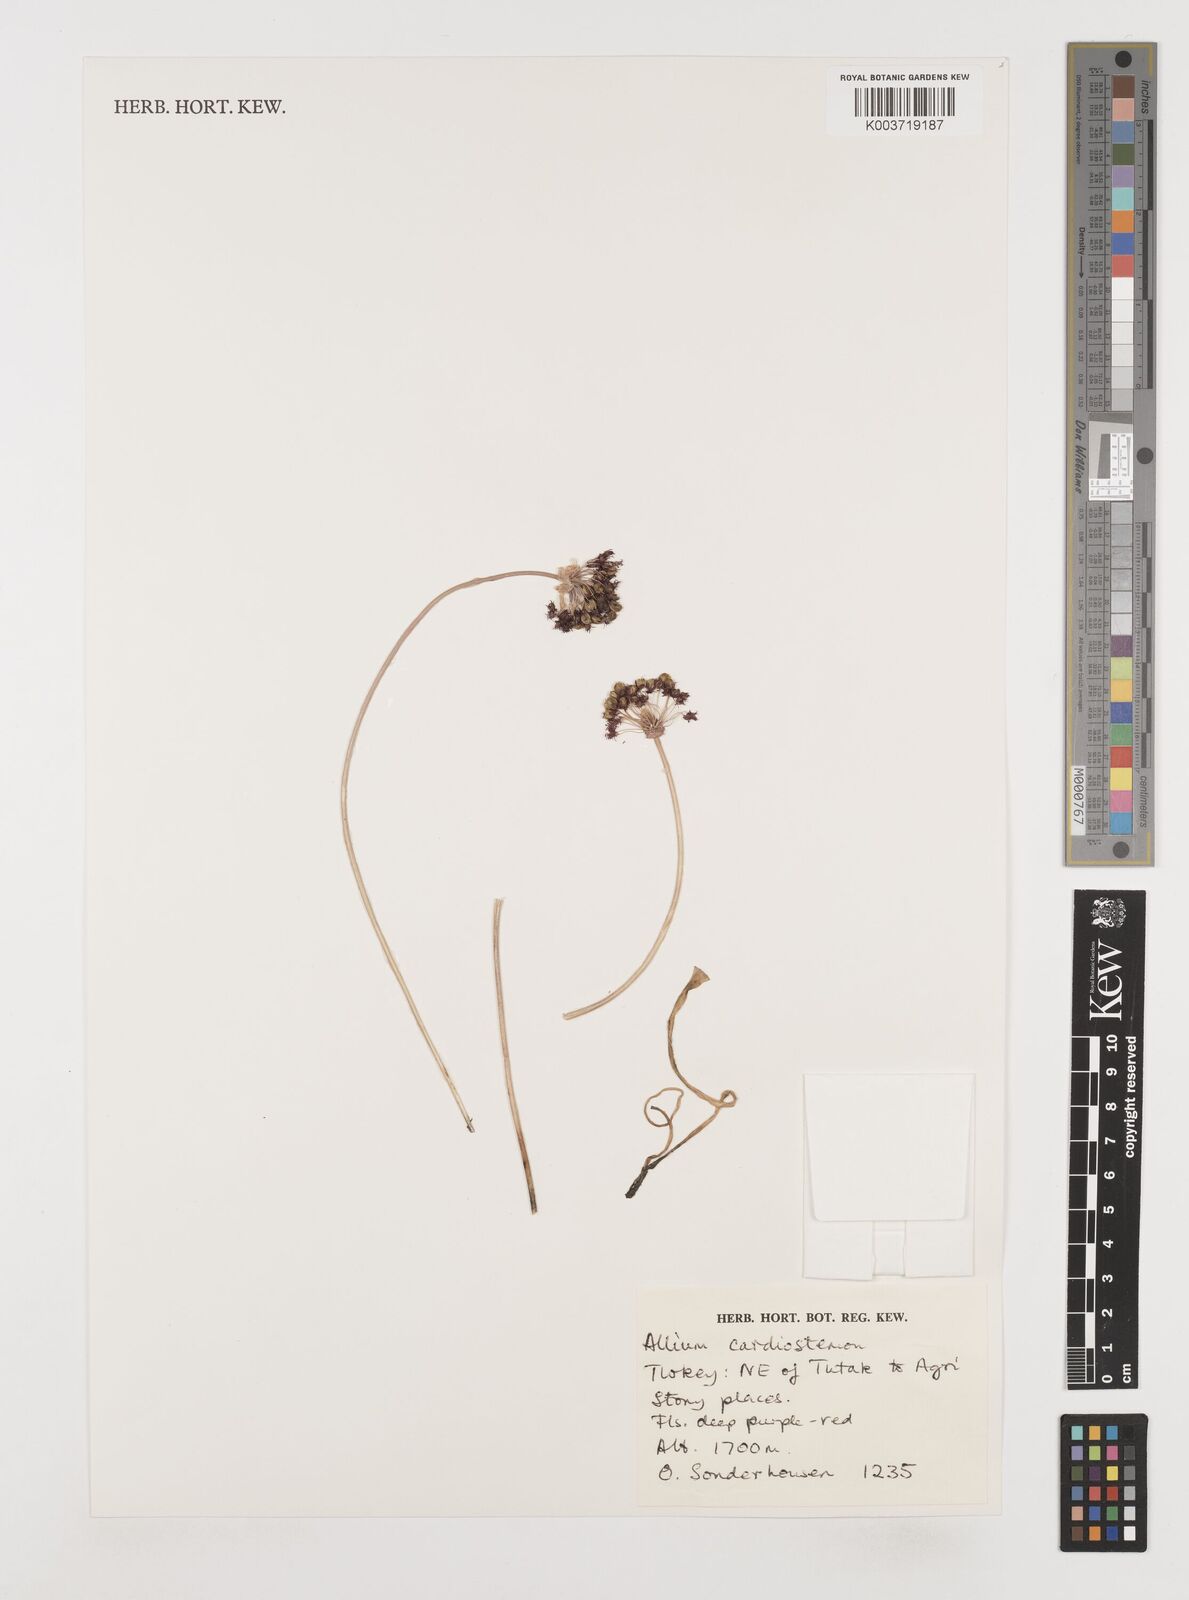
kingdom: Plantae
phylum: Tracheophyta
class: Liliopsida
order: Asparagales
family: Amaryllidaceae
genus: Allium
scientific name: Allium cardiostemon
